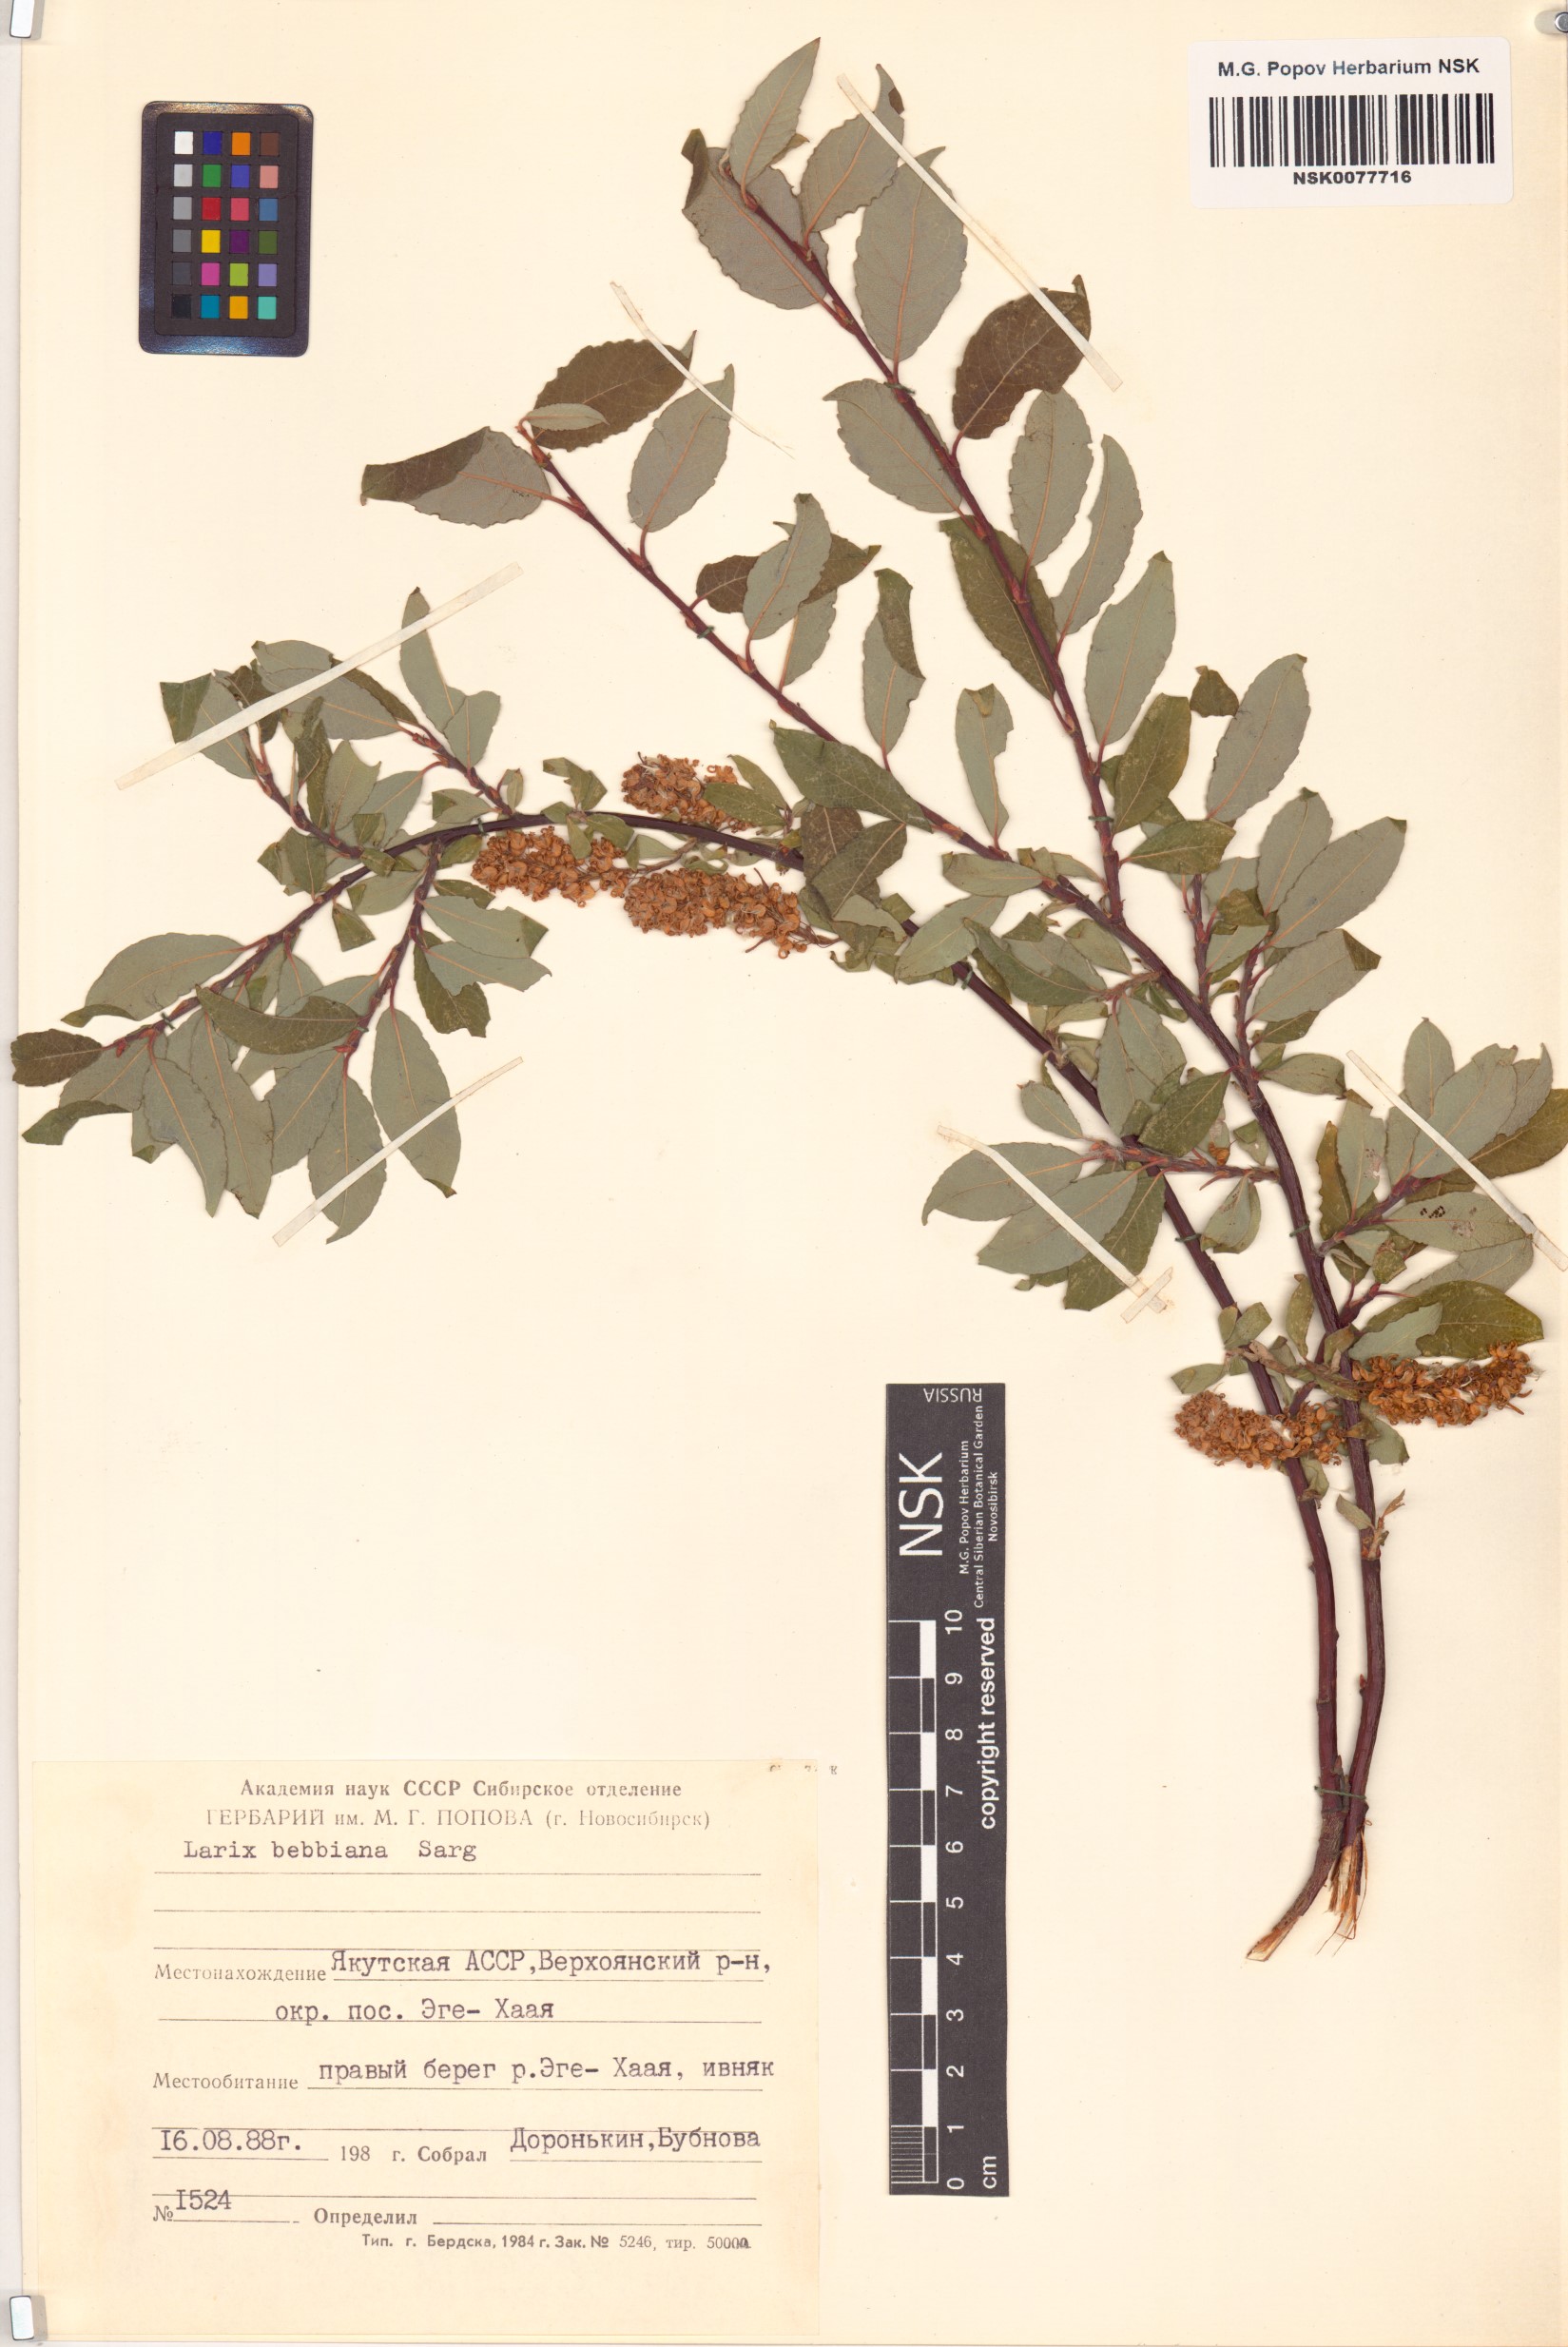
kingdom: Plantae
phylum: Tracheophyta
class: Magnoliopsida
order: Malpighiales
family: Salicaceae
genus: Salix
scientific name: Salix bebbiana
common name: Bebb's willow
